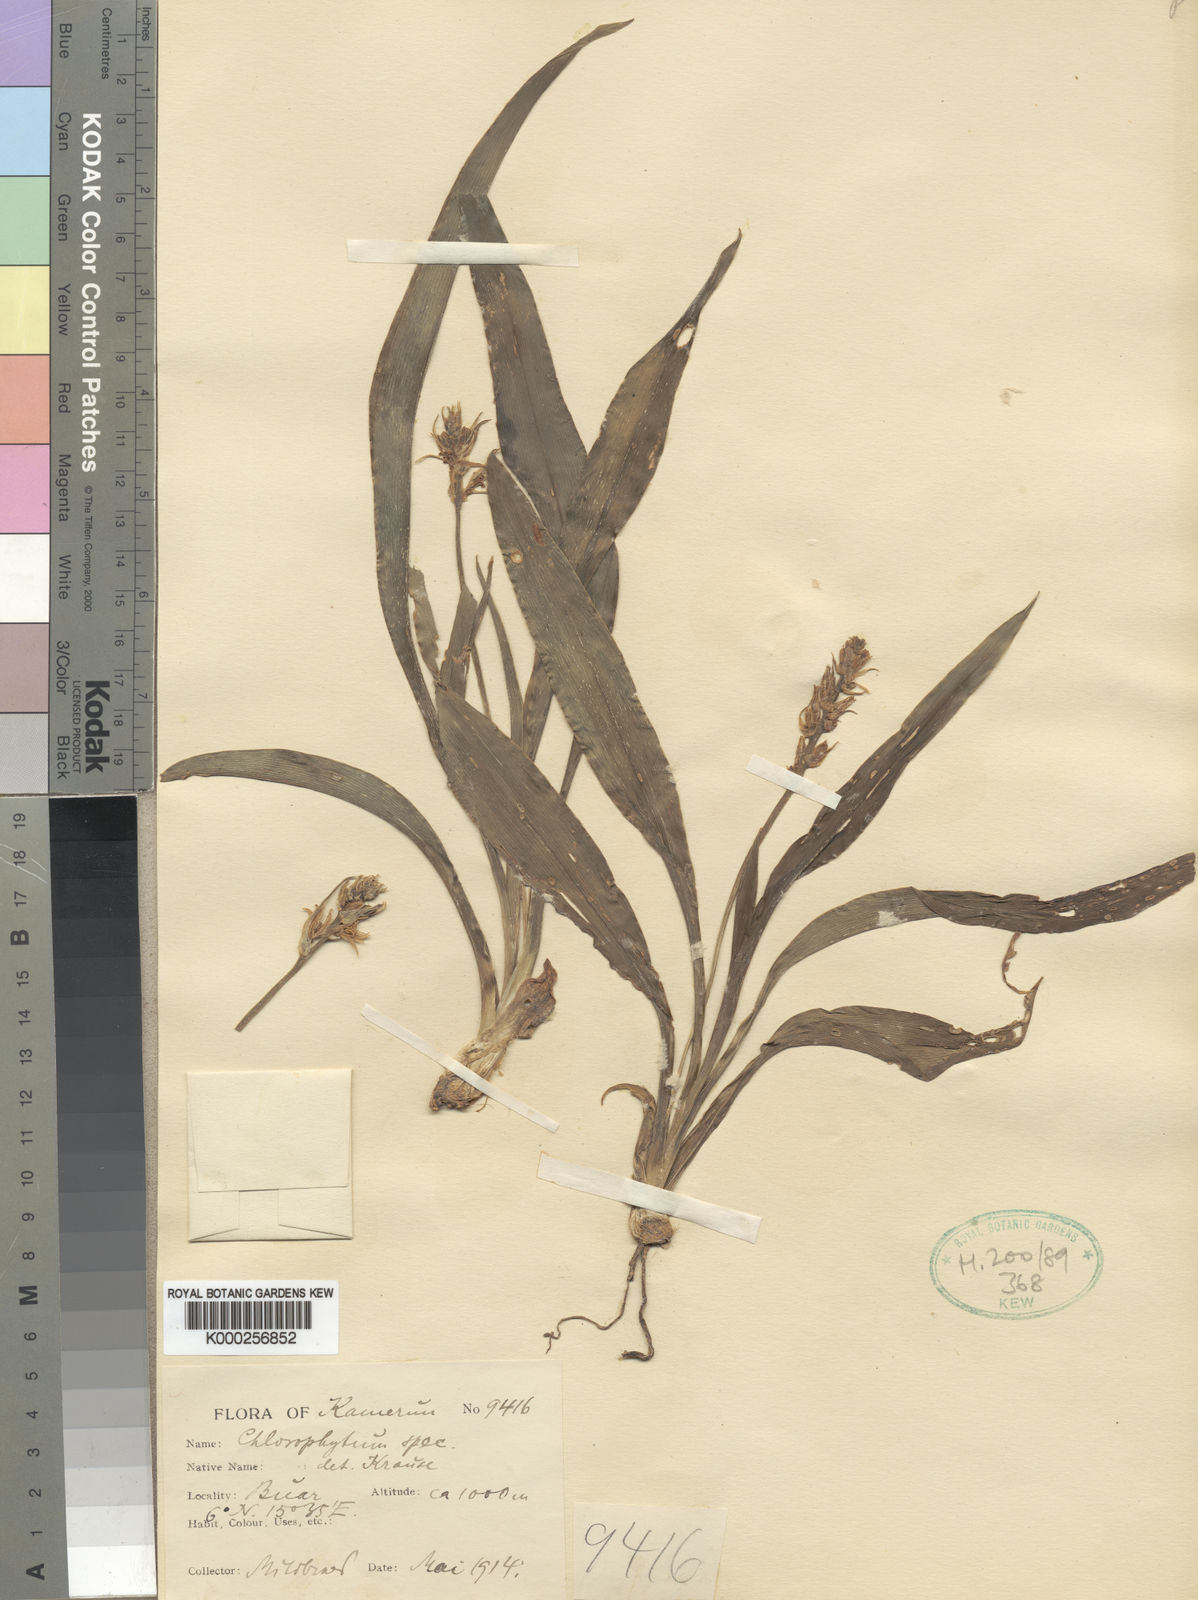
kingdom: Plantae
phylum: Tracheophyta
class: Liliopsida
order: Asparagales
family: Asparagaceae
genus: Chlorophytum
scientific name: Chlorophytum subpetiolatum
